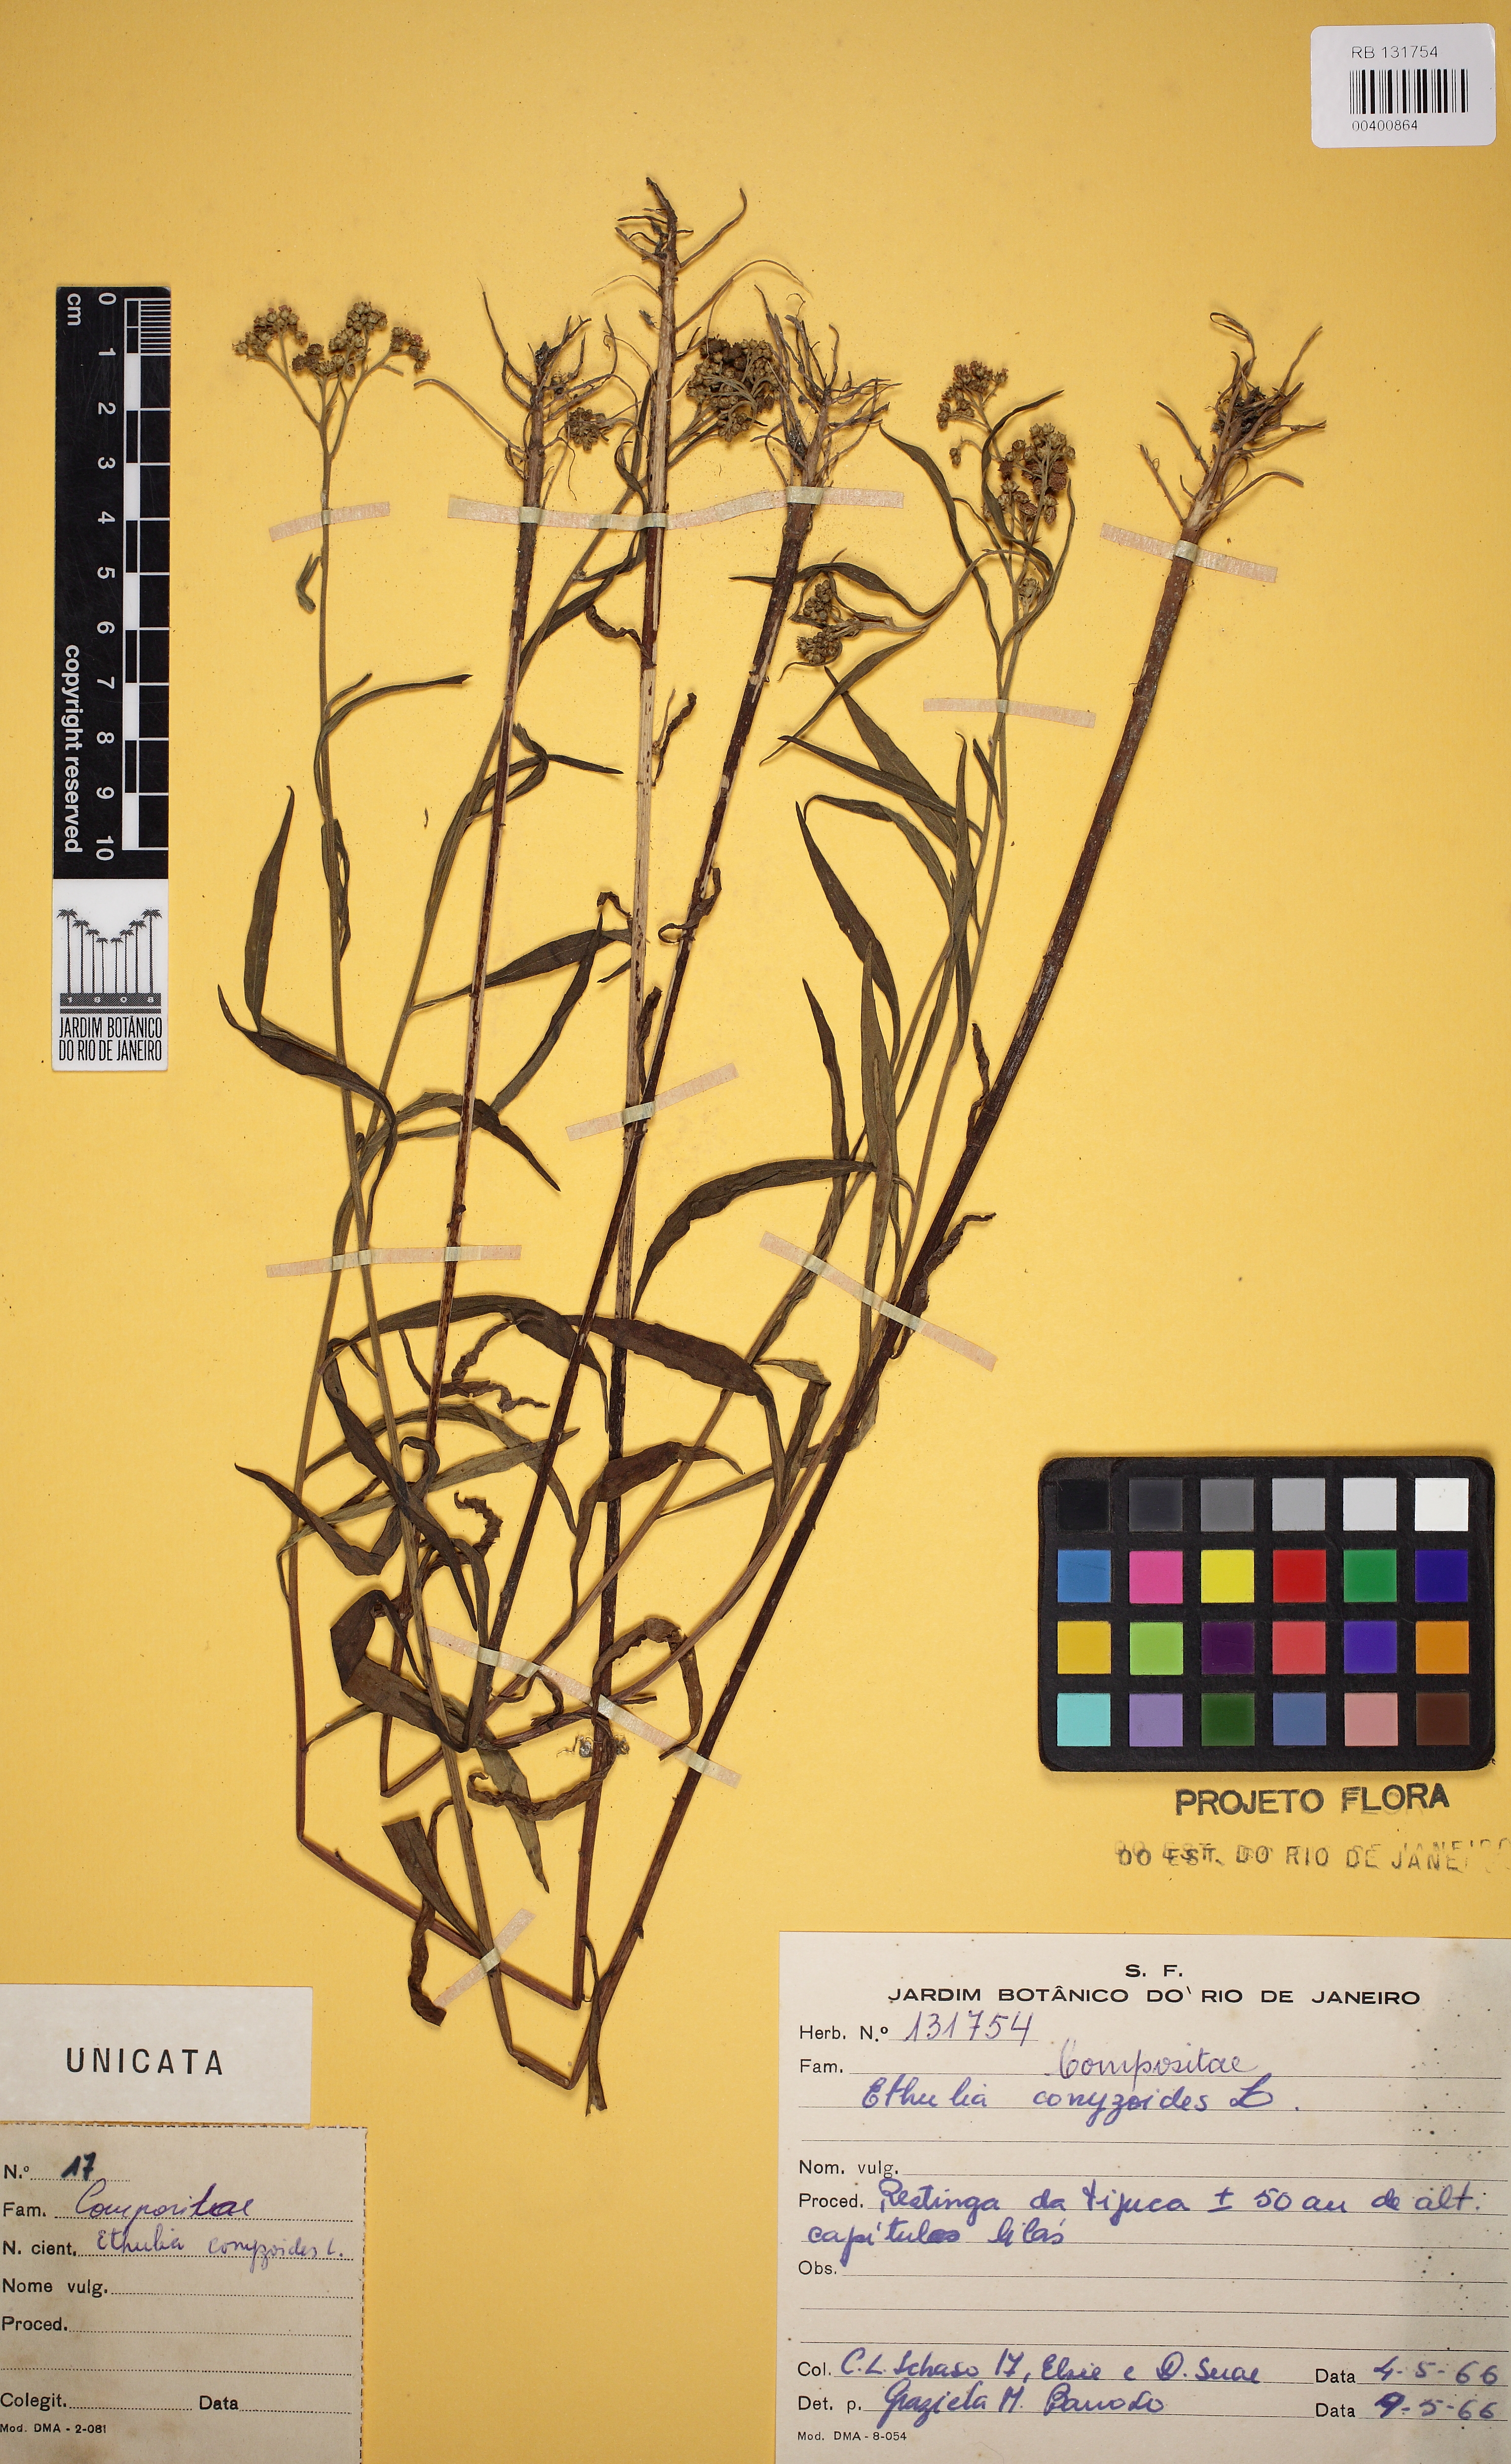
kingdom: Plantae
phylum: Tracheophyta
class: Magnoliopsida
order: Asterales
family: Asteraceae
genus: Ethulia
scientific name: Ethulia conyzoides
